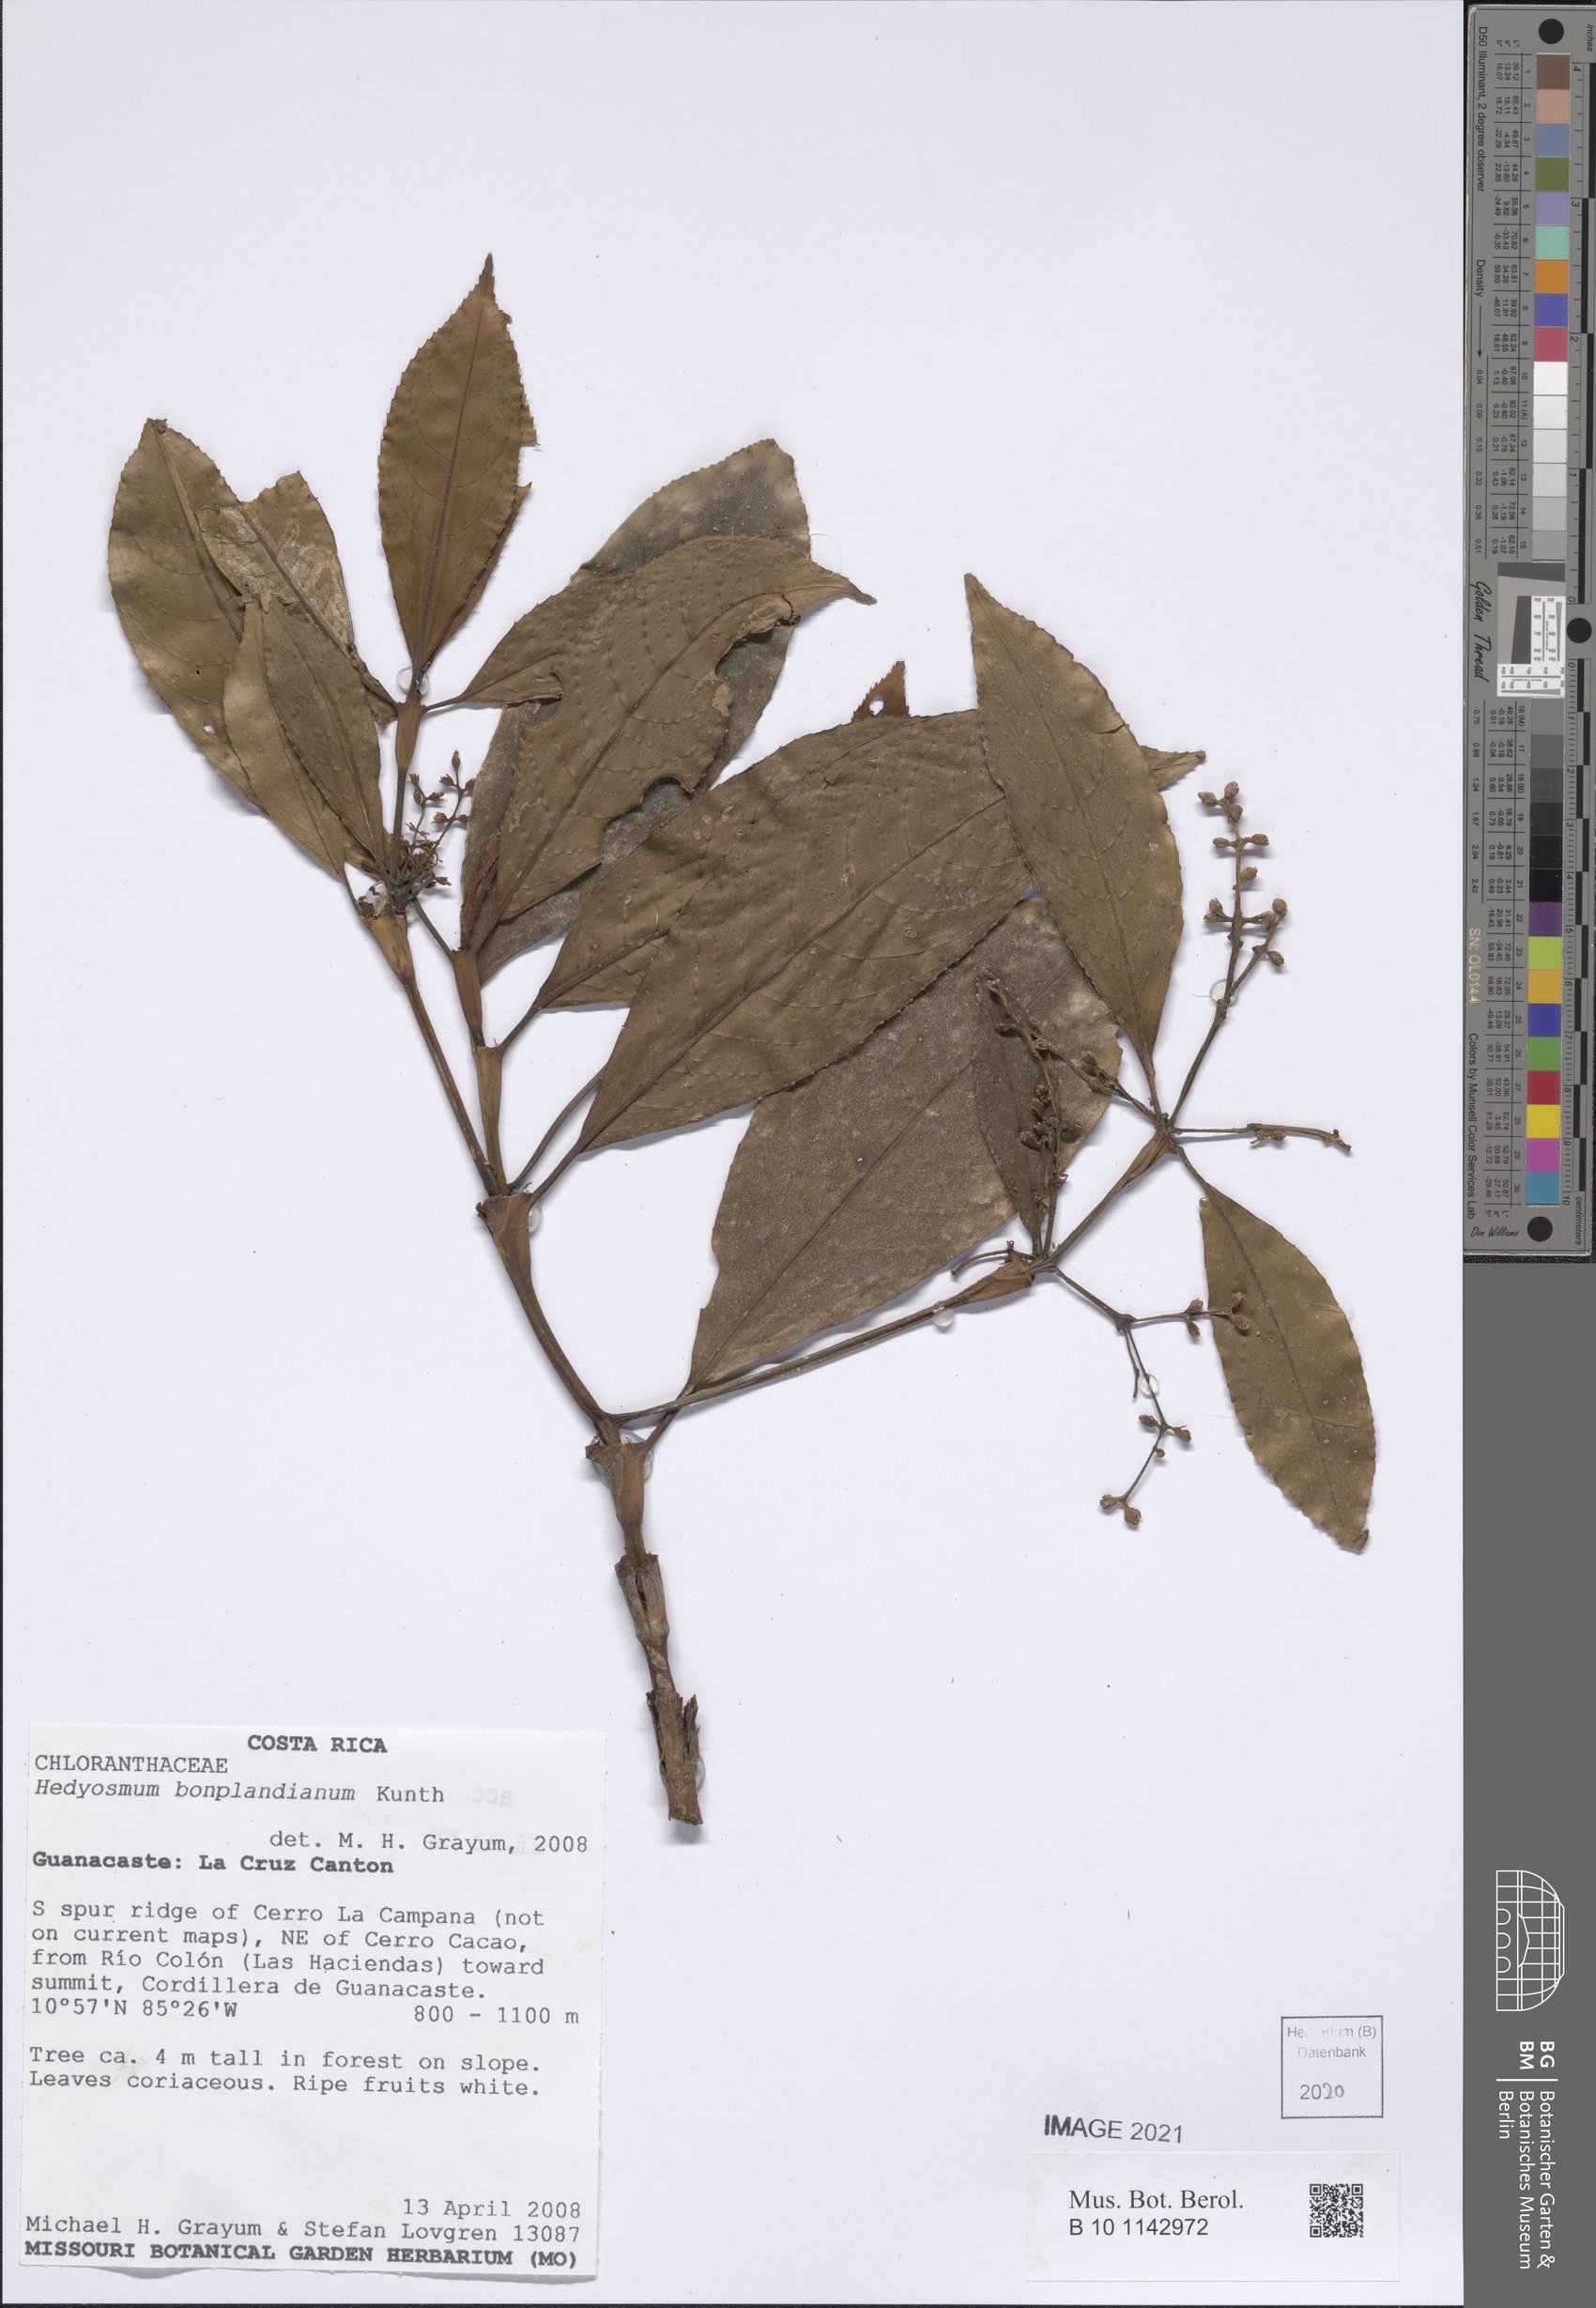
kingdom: Plantae
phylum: Tracheophyta
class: Magnoliopsida
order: Chloranthales
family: Chloranthaceae
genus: Hedyosmum
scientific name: Hedyosmum bonplandianum
